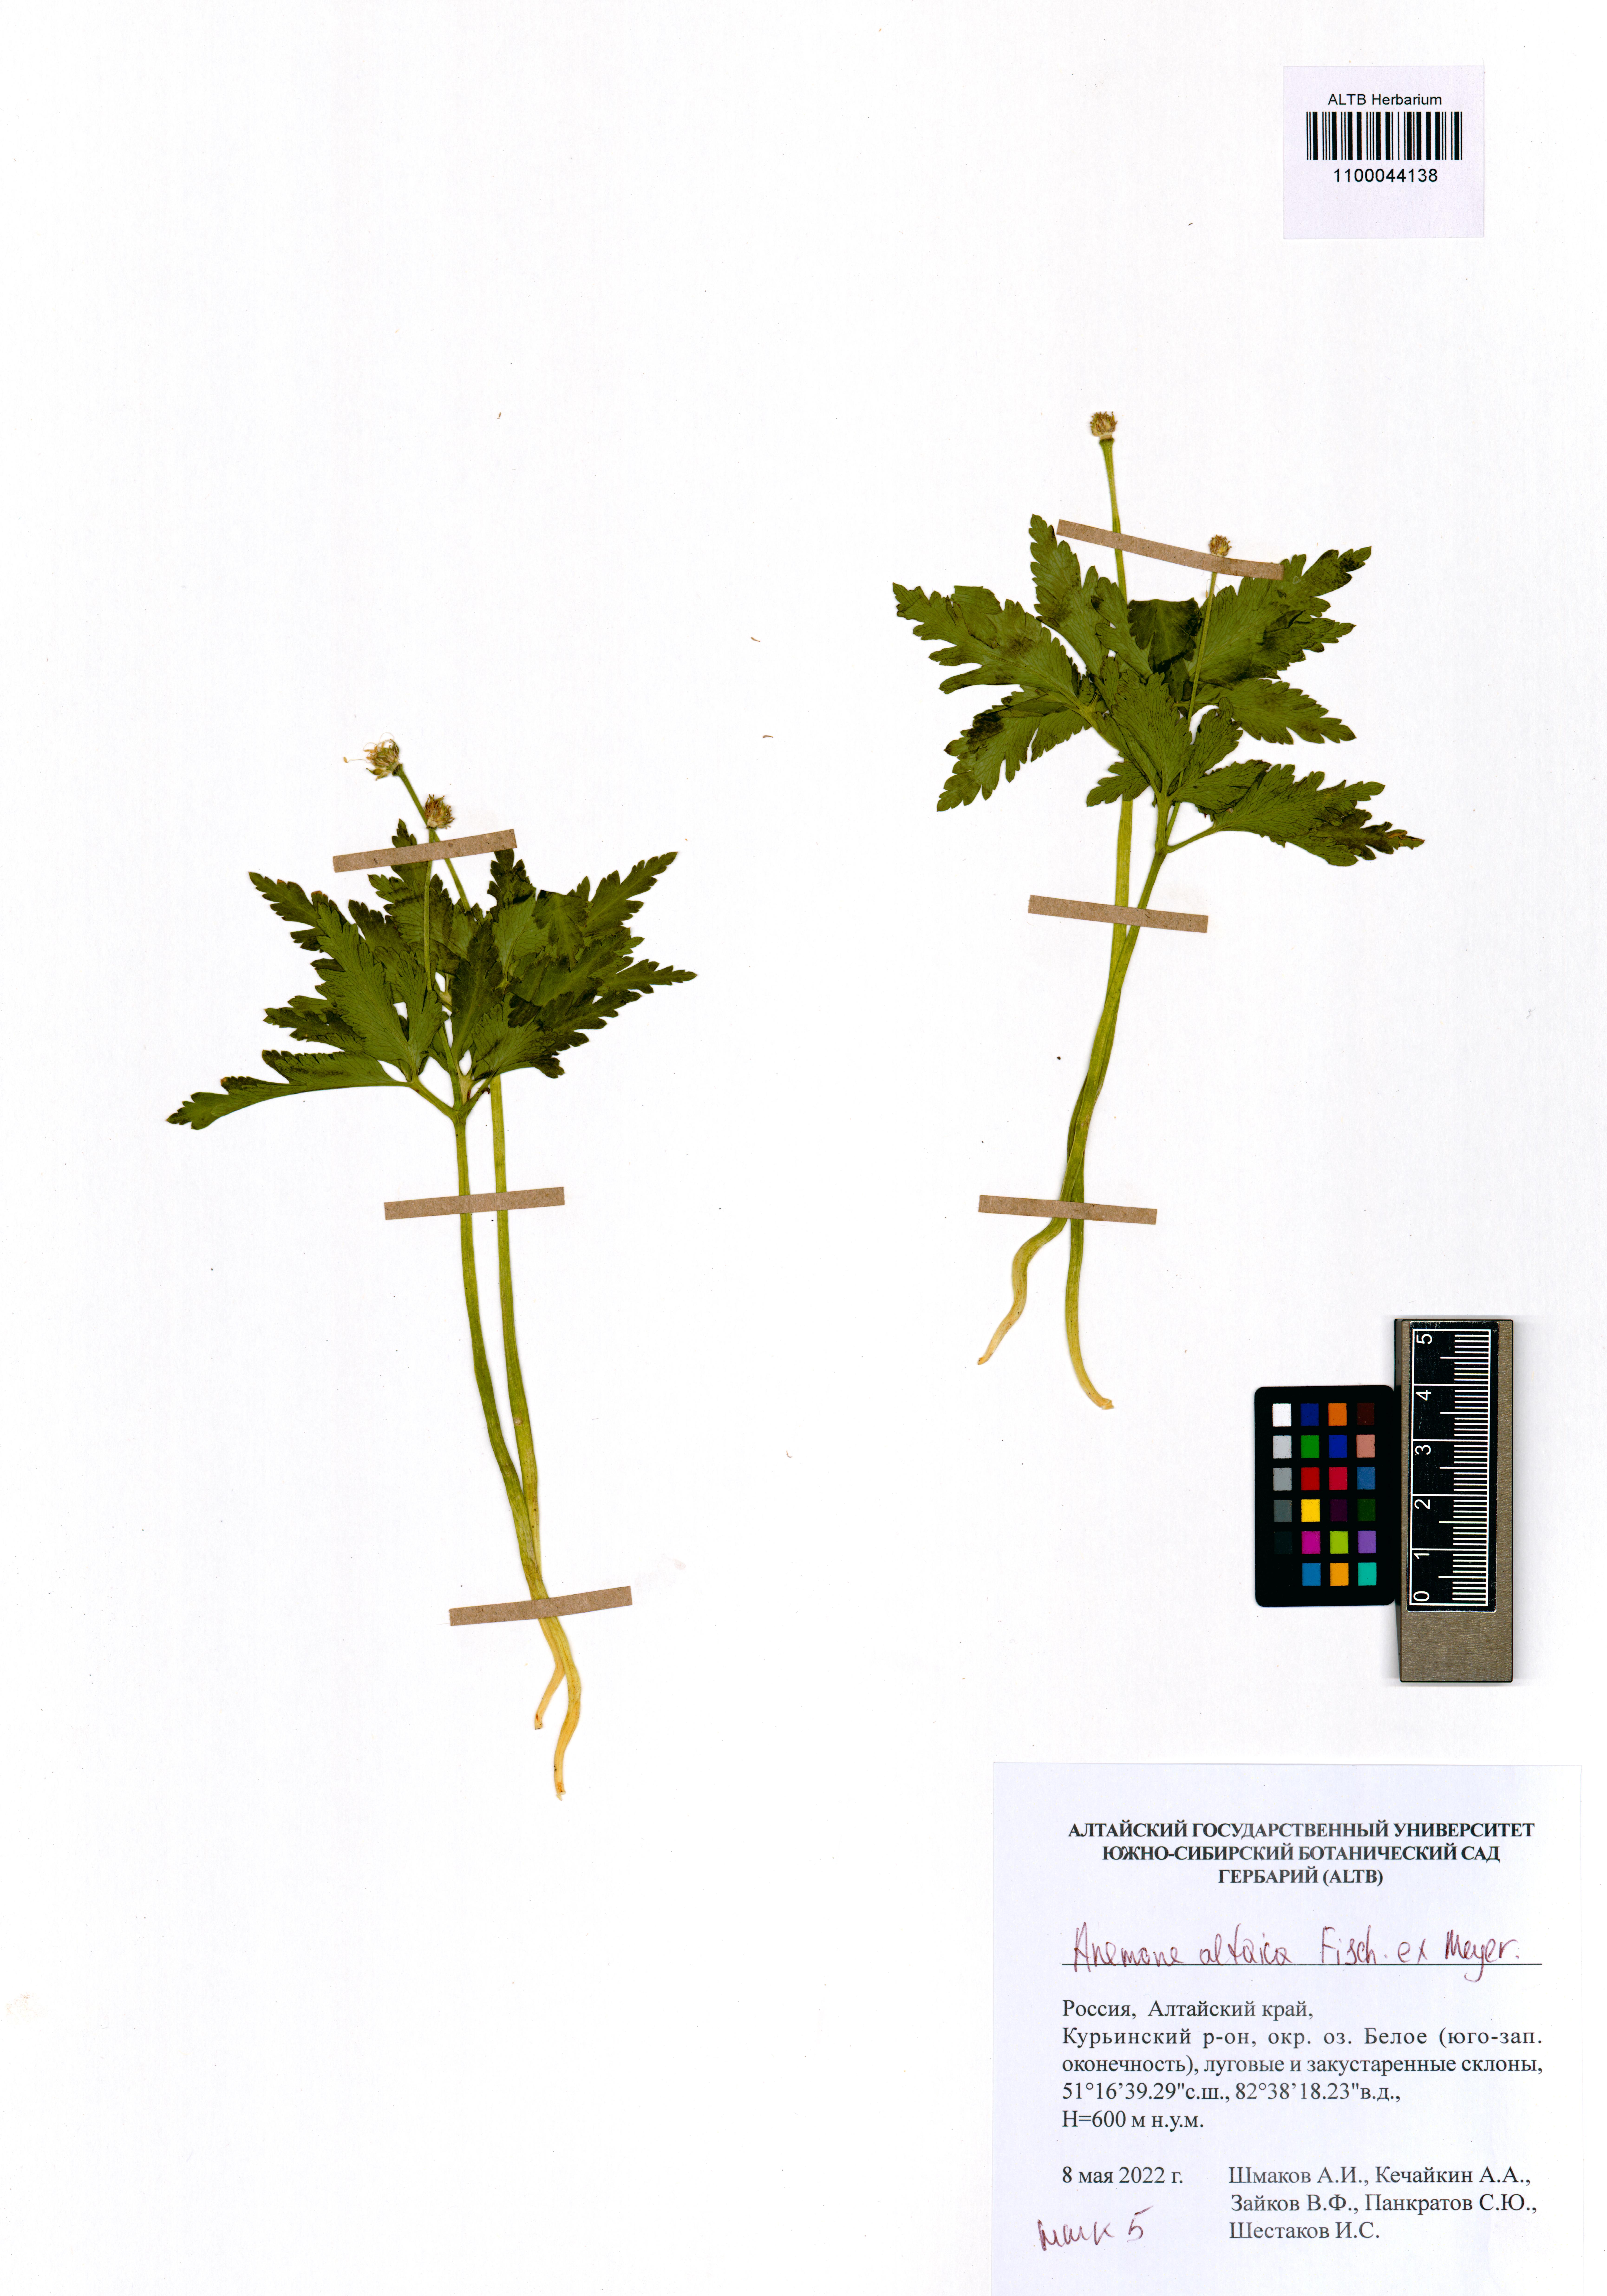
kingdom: Plantae
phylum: Tracheophyta
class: Magnoliopsida
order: Ranunculales
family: Ranunculaceae
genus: Anemone
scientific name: Anemone altaica
